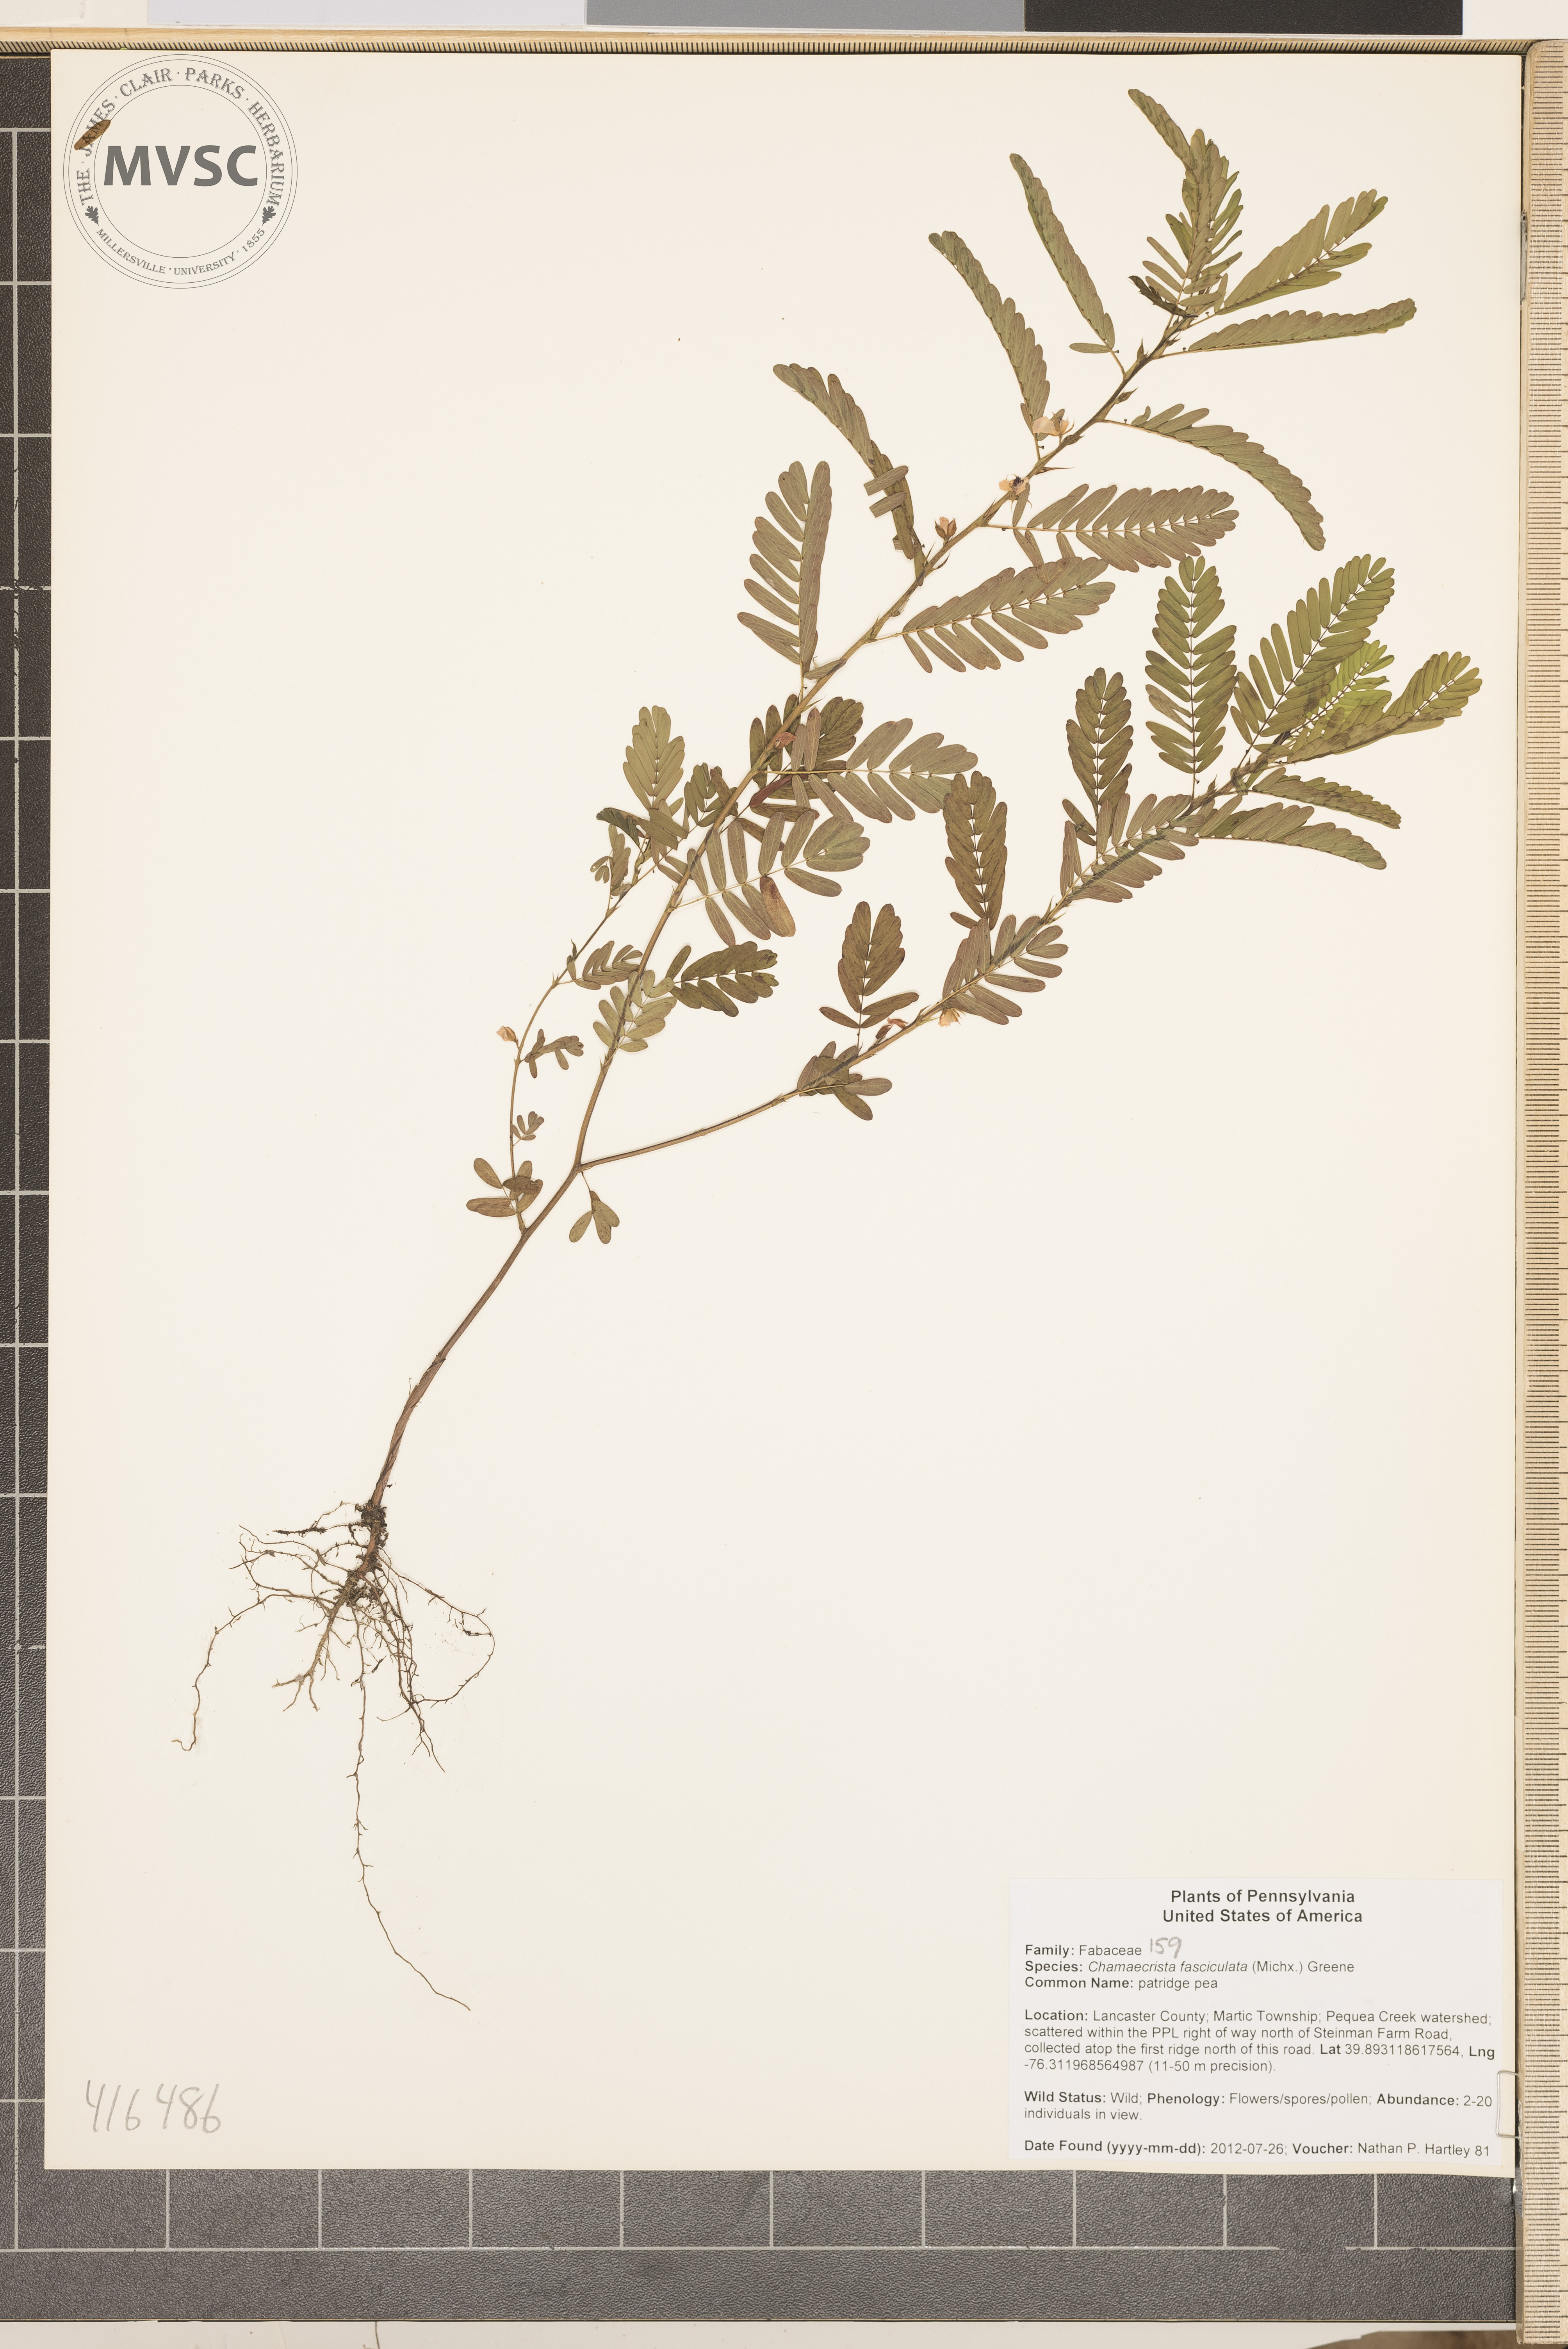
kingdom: Plantae
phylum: Tracheophyta
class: Magnoliopsida
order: Fabales
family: Fabaceae
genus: Chamaecrista
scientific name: Chamaecrista fasciculata
